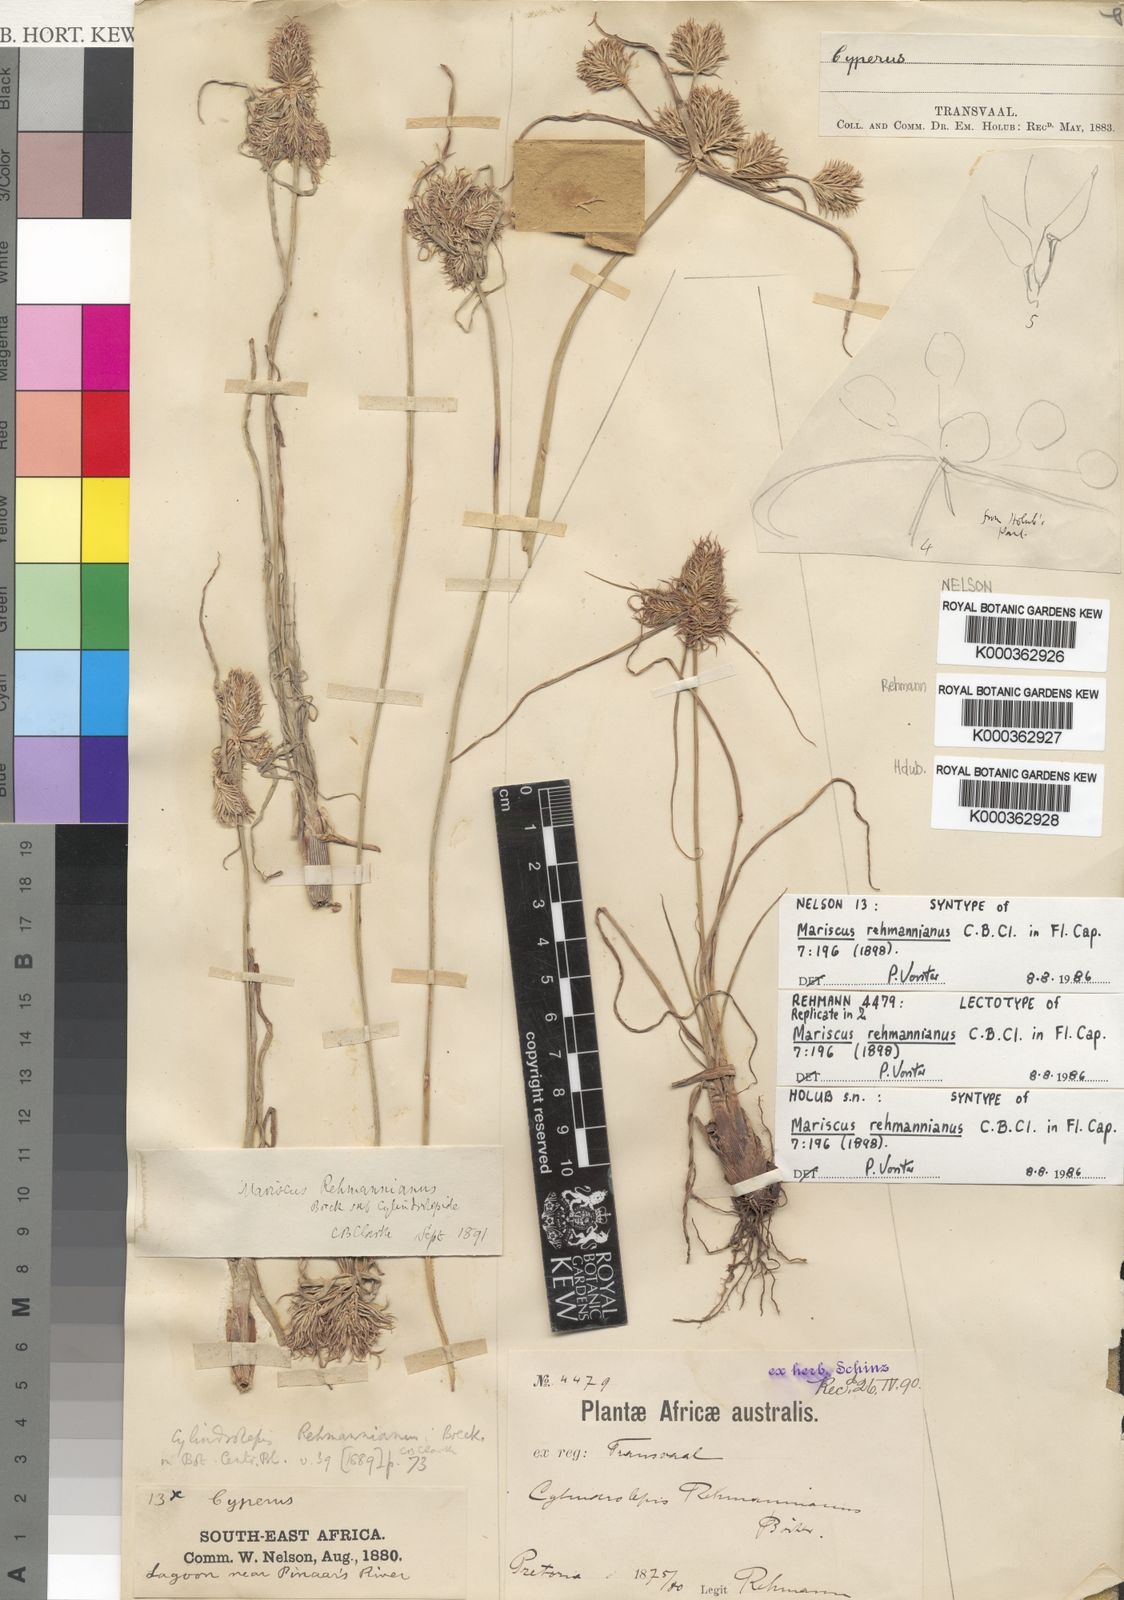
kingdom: Plantae
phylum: Tracheophyta
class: Liliopsida
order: Poales
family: Cyperaceae
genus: Cyperus
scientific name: Cyperus flavescens
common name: Yellow galingale
